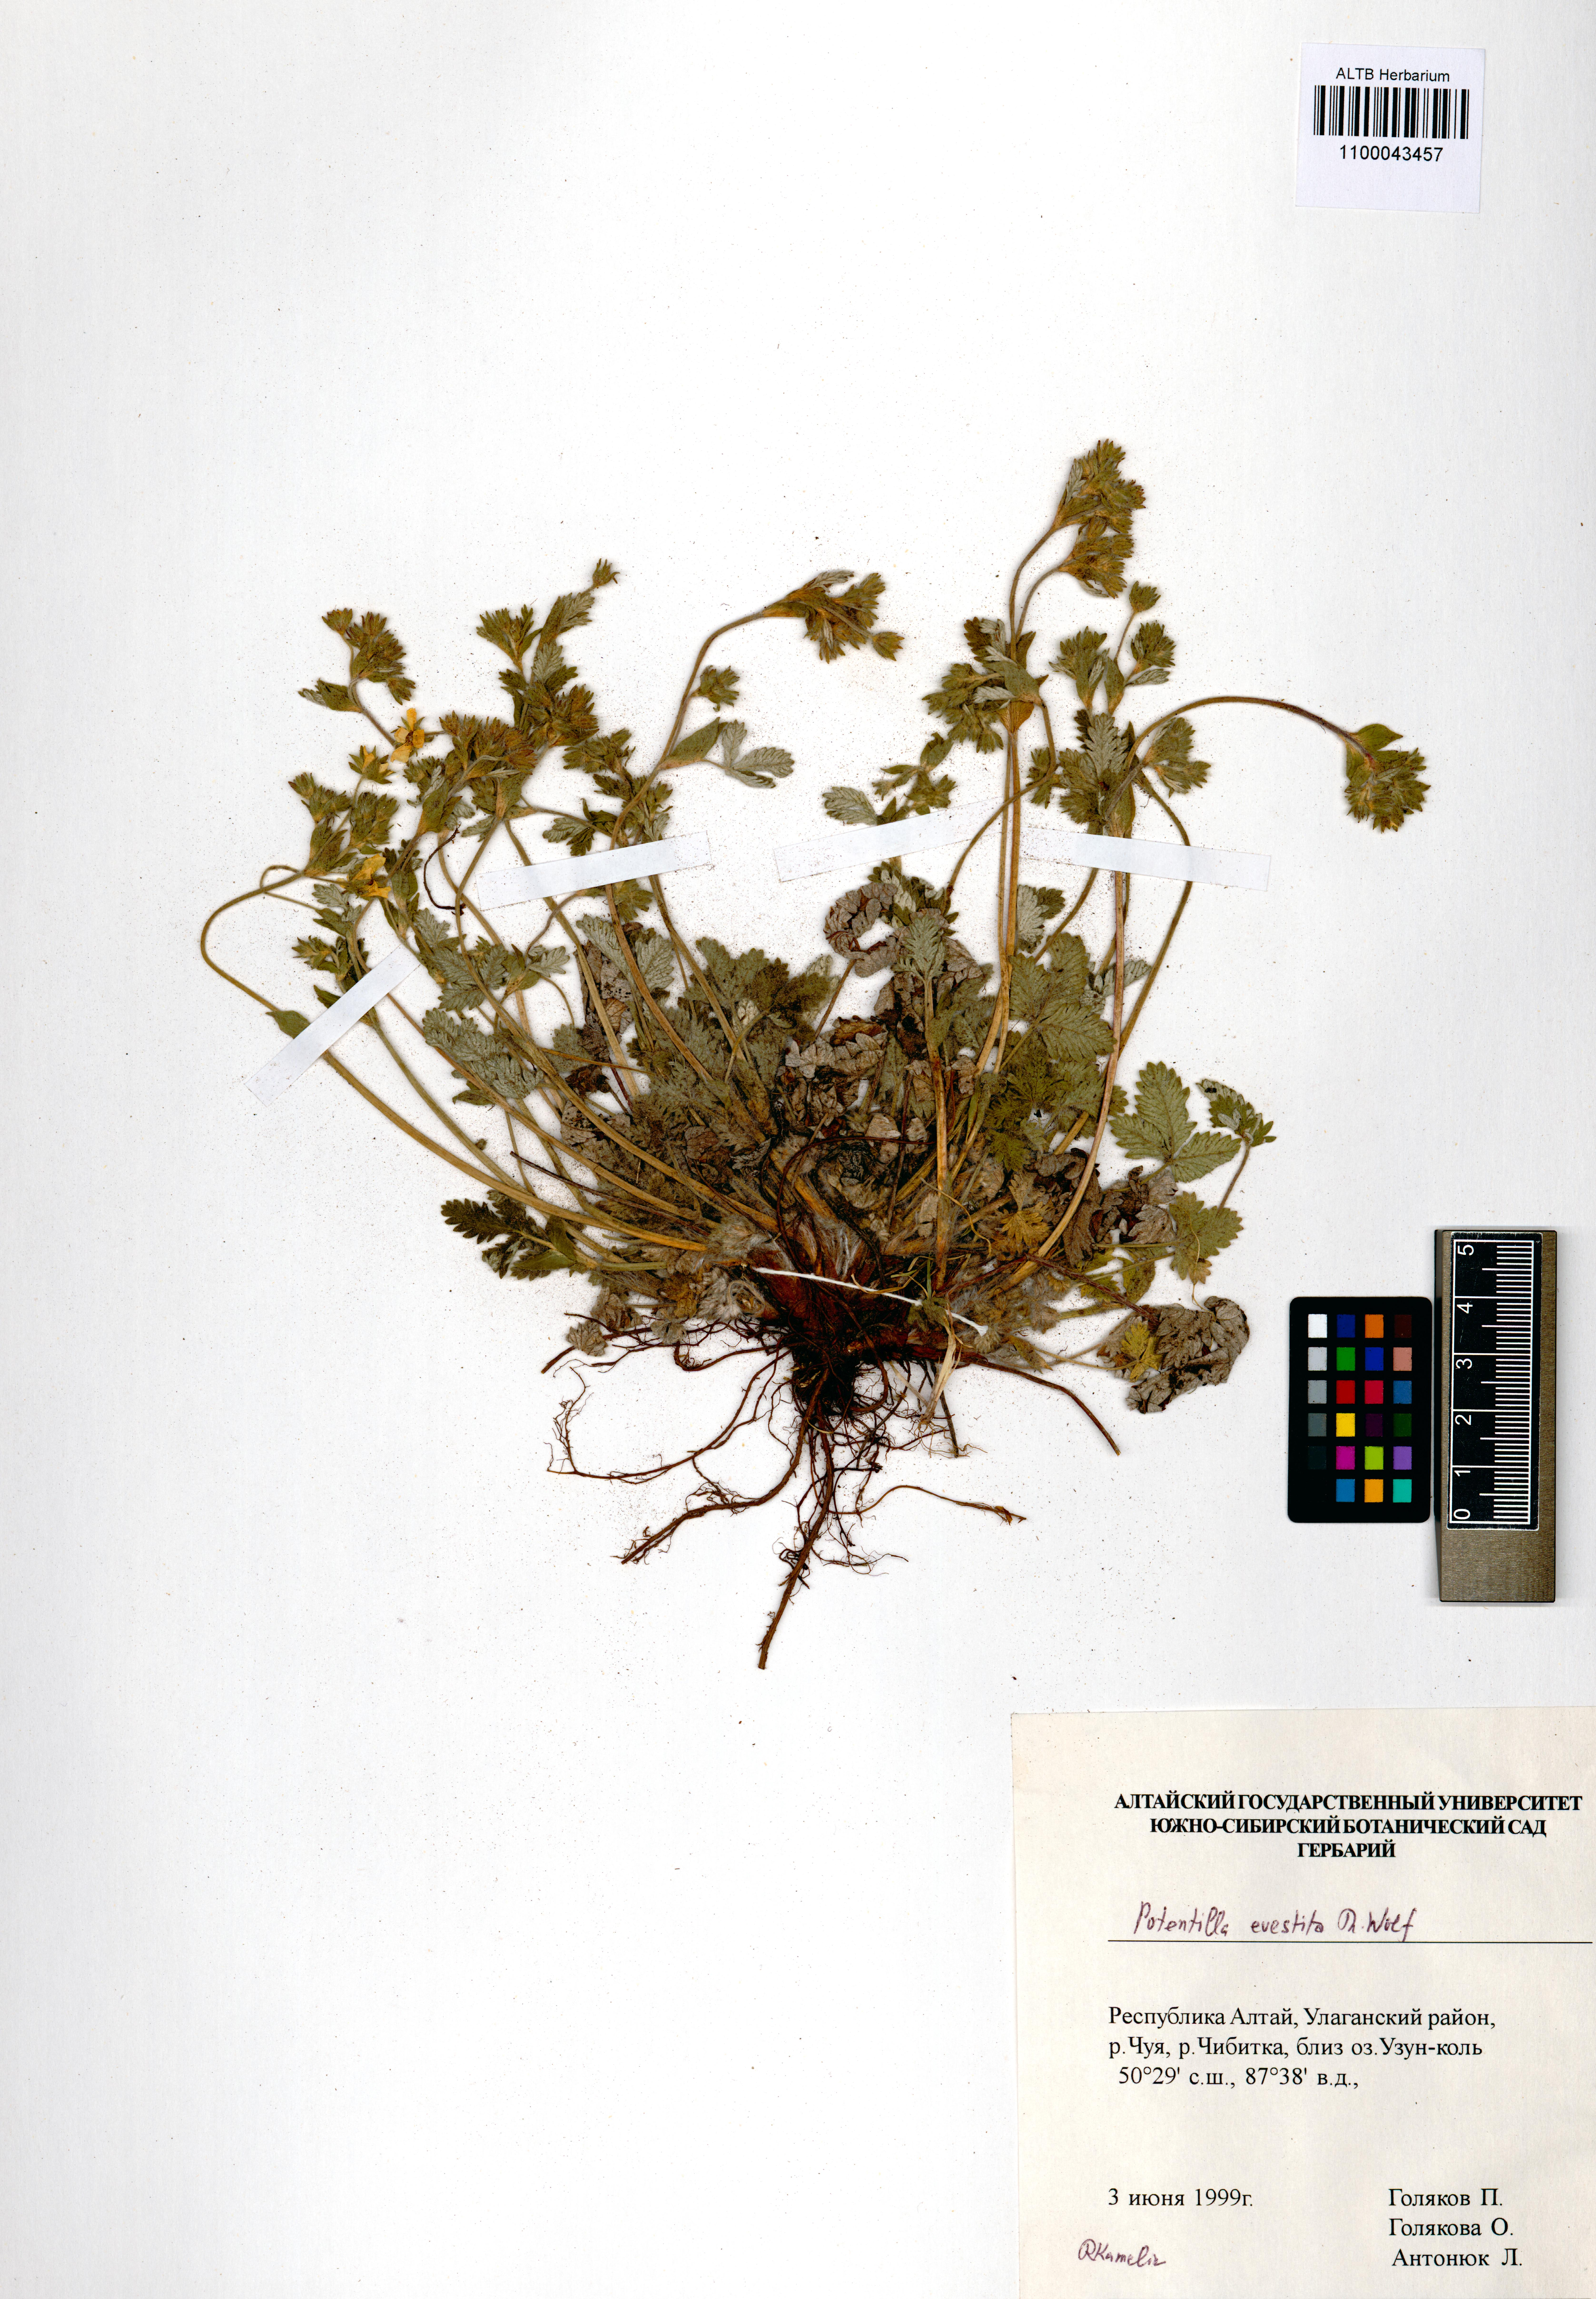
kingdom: Plantae
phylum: Tracheophyta
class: Magnoliopsida
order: Rosales
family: Rosaceae
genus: Potentilla
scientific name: Potentilla evestita
